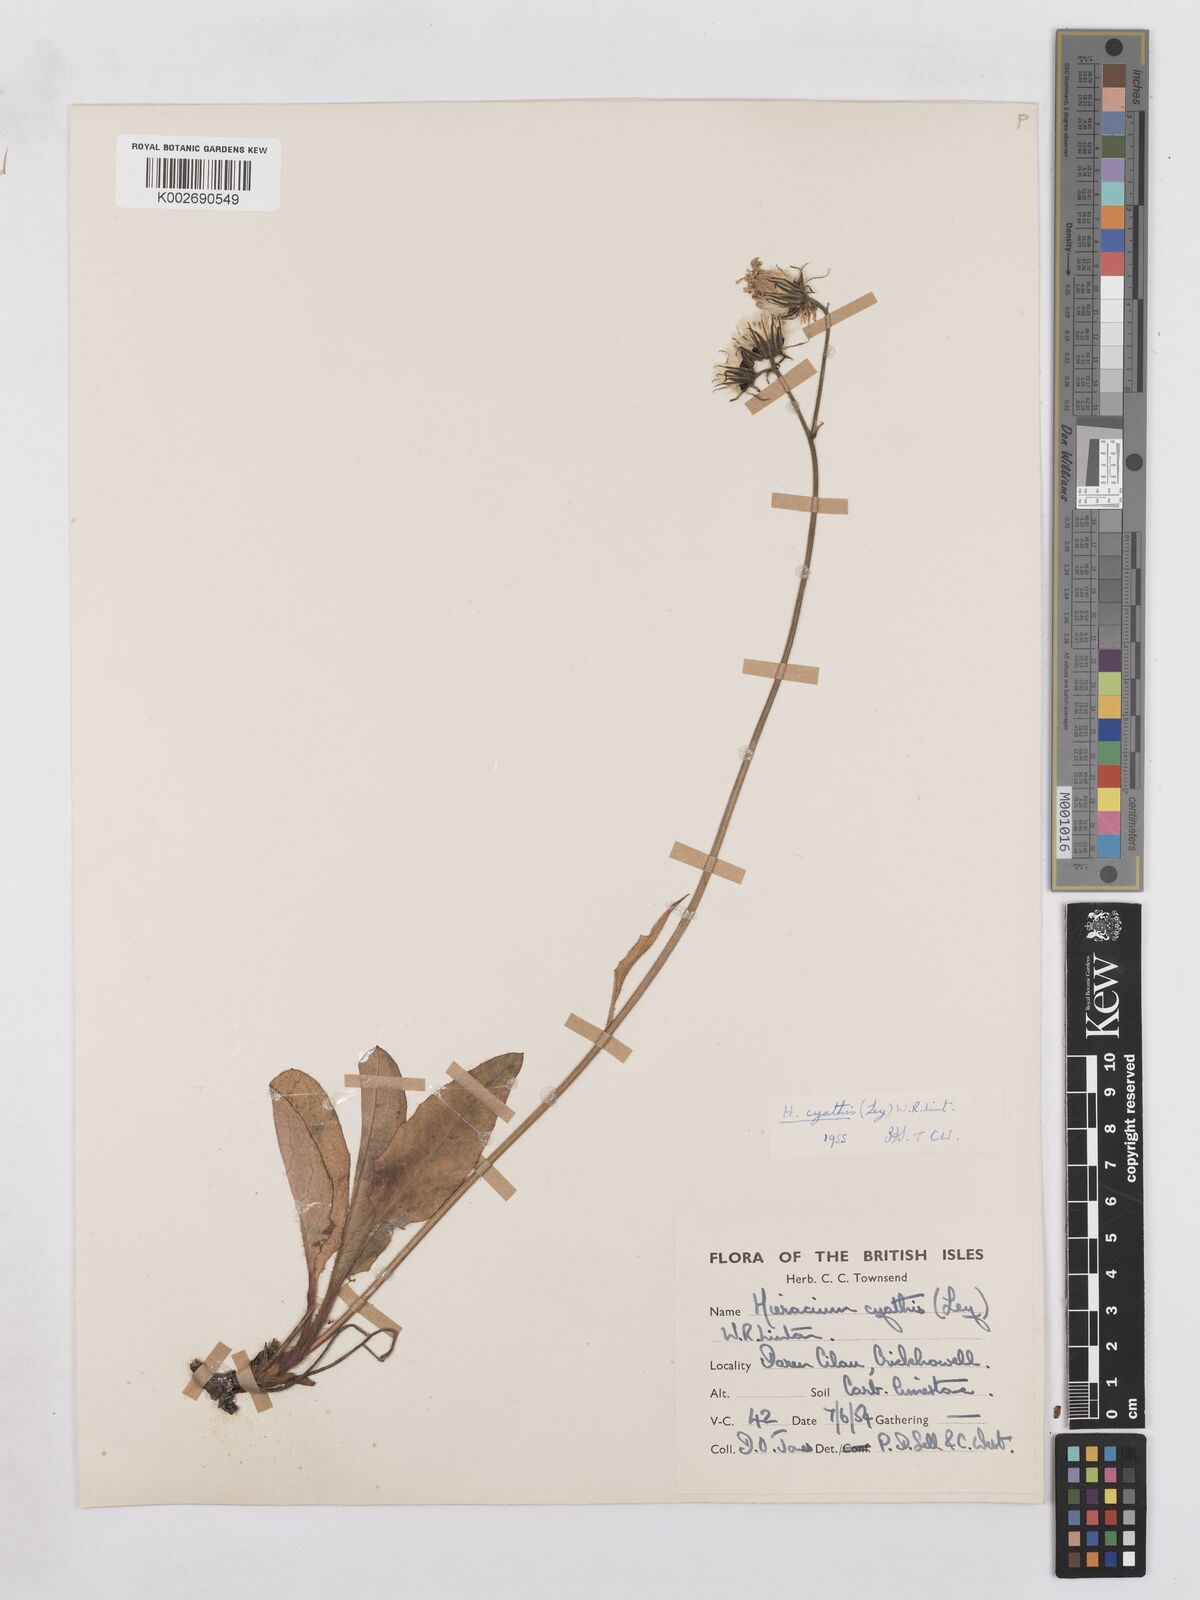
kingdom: Plantae
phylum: Tracheophyta
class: Magnoliopsida
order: Asterales
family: Asteraceae
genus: Hieracium
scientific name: Hieracium hypochoeroides
